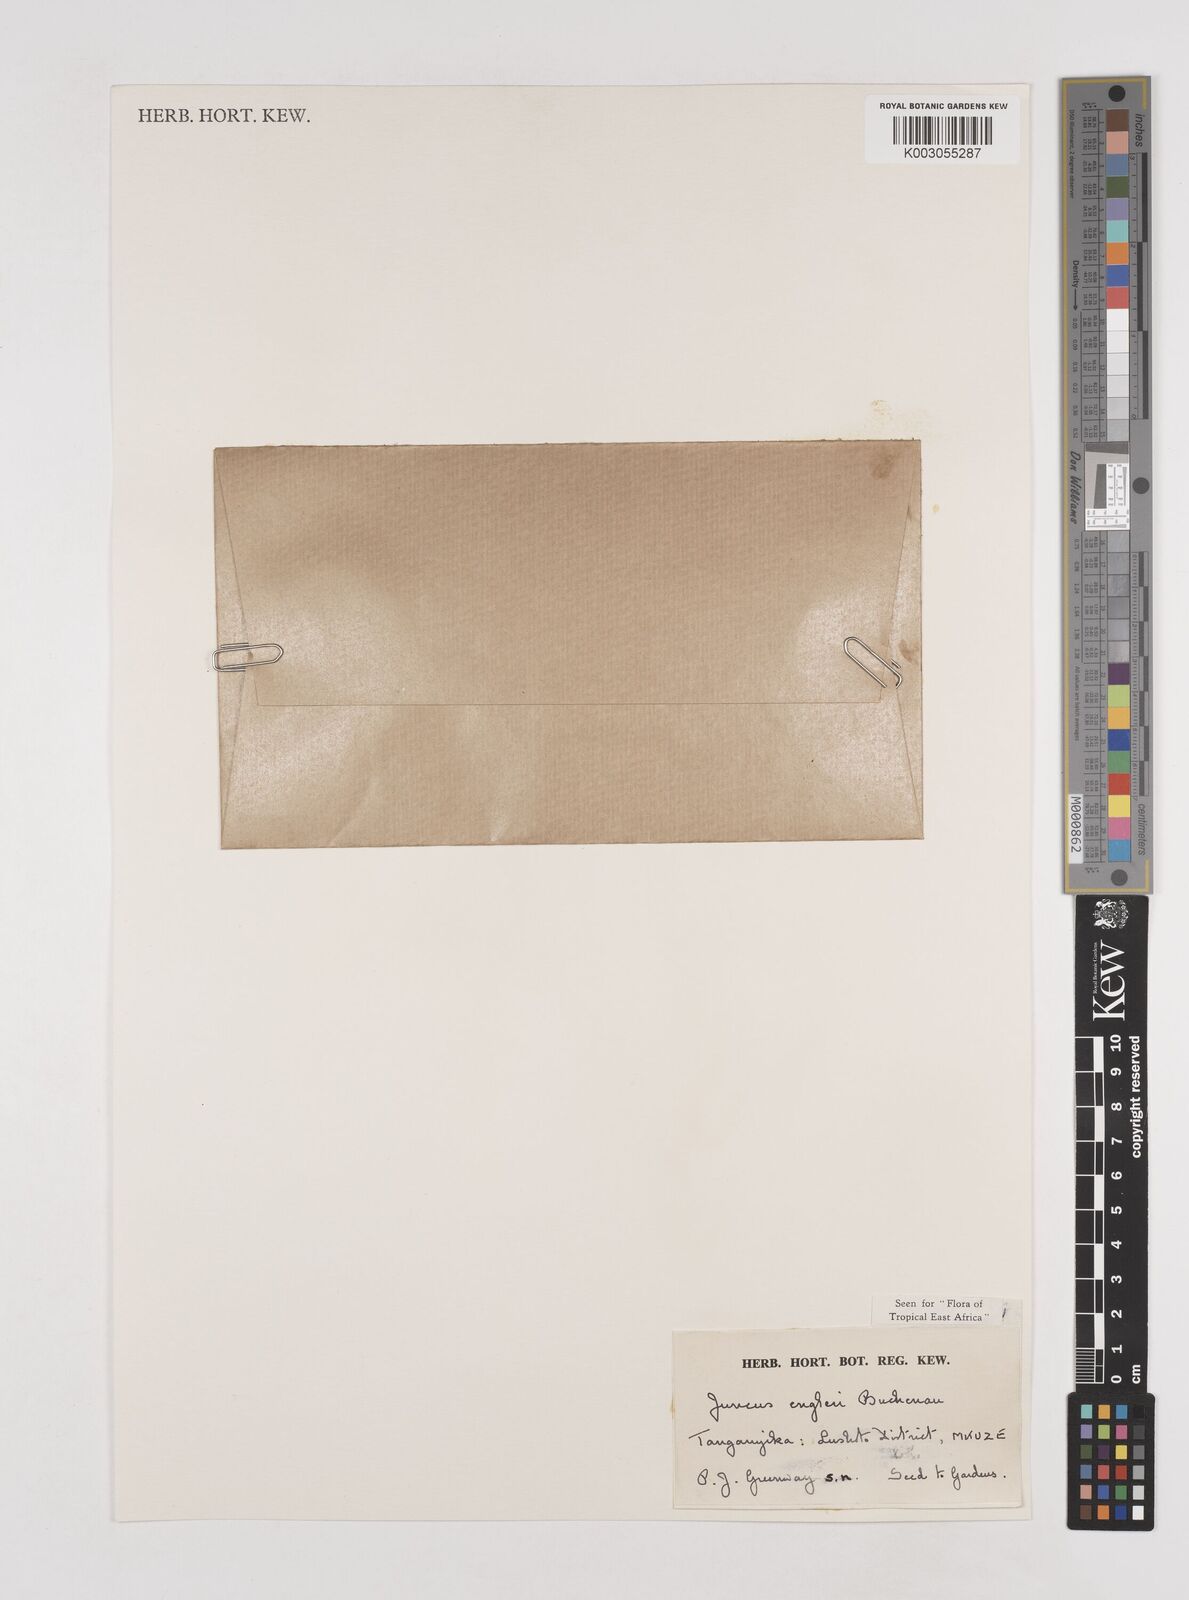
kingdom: Plantae
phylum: Tracheophyta
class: Liliopsida
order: Poales
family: Juncaceae
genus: Juncus
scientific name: Juncus engleri
